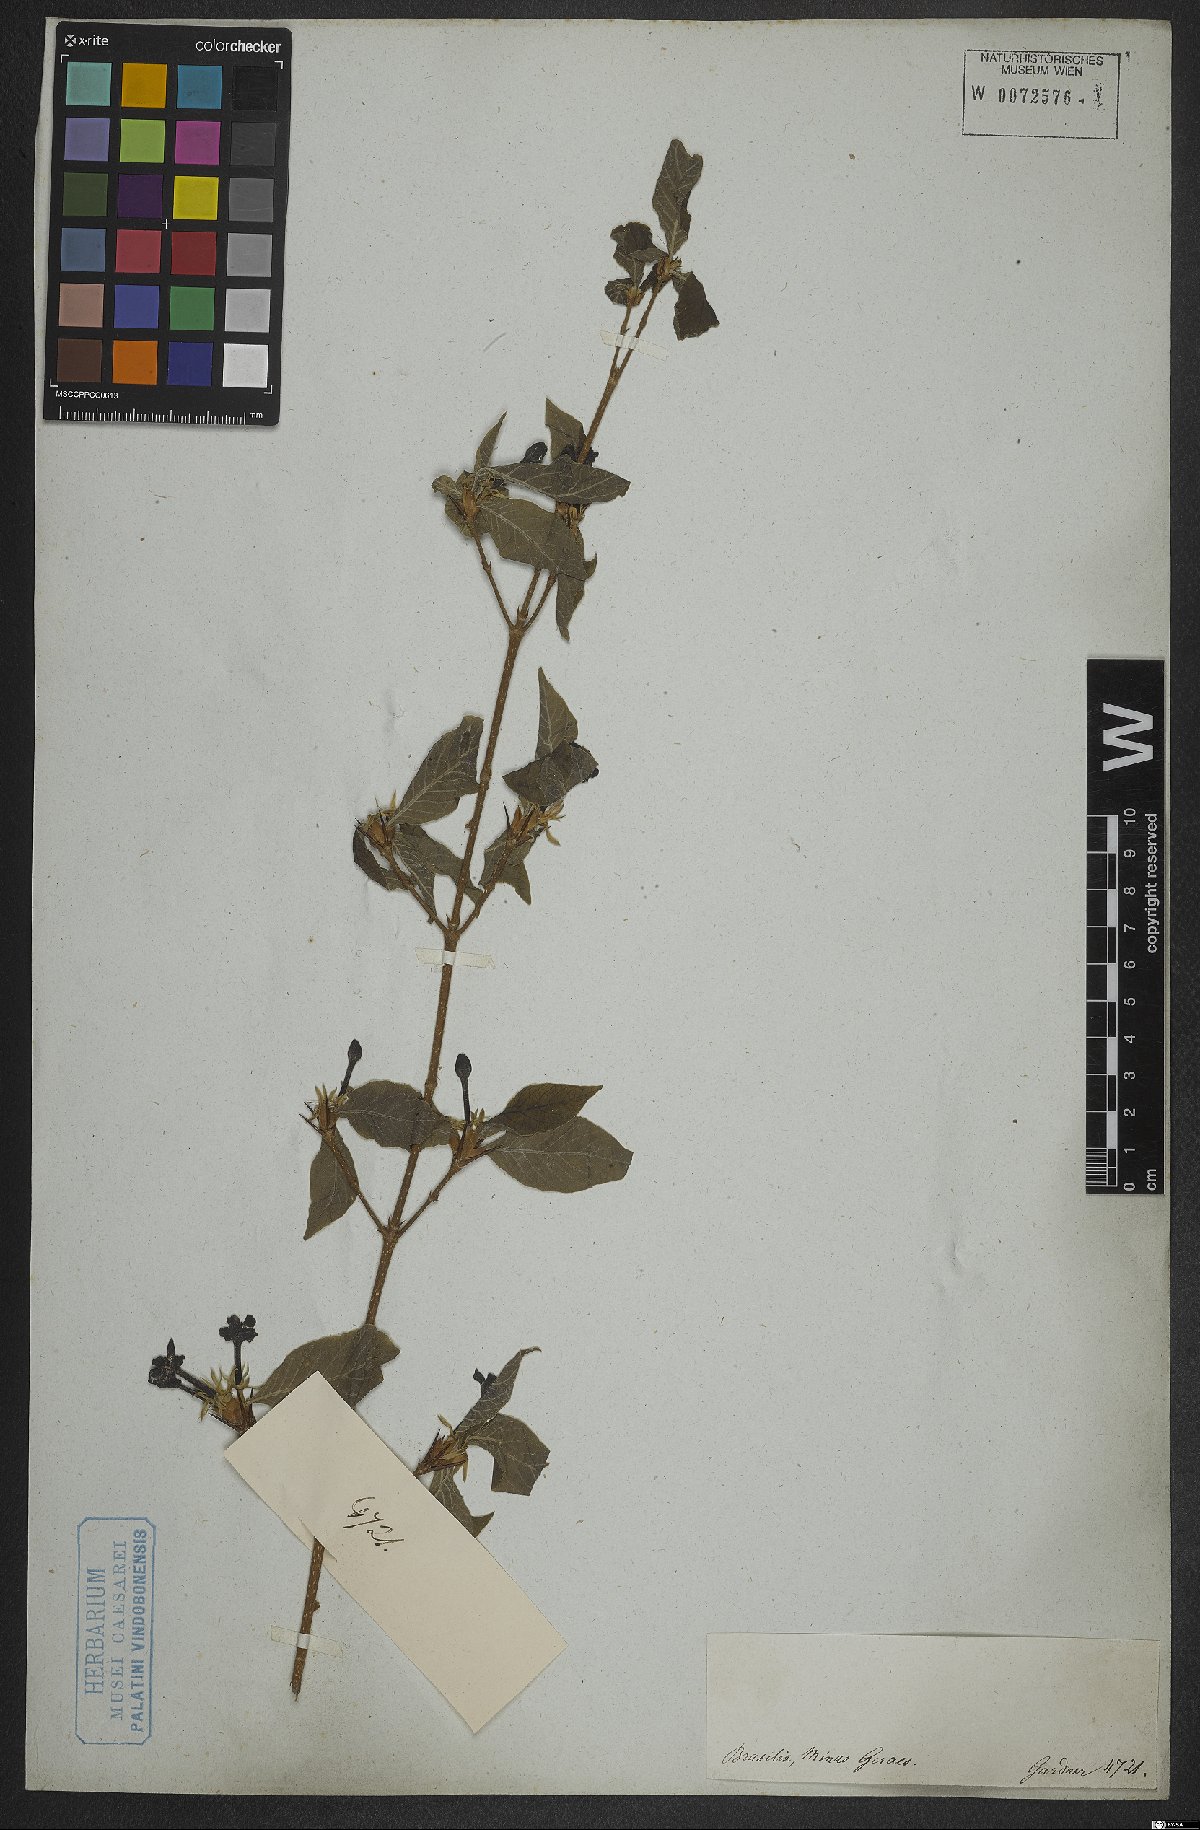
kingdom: Plantae
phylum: Tracheophyta
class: Magnoliopsida
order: Gentianales
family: Rubiaceae
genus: Randia
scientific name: Randia
